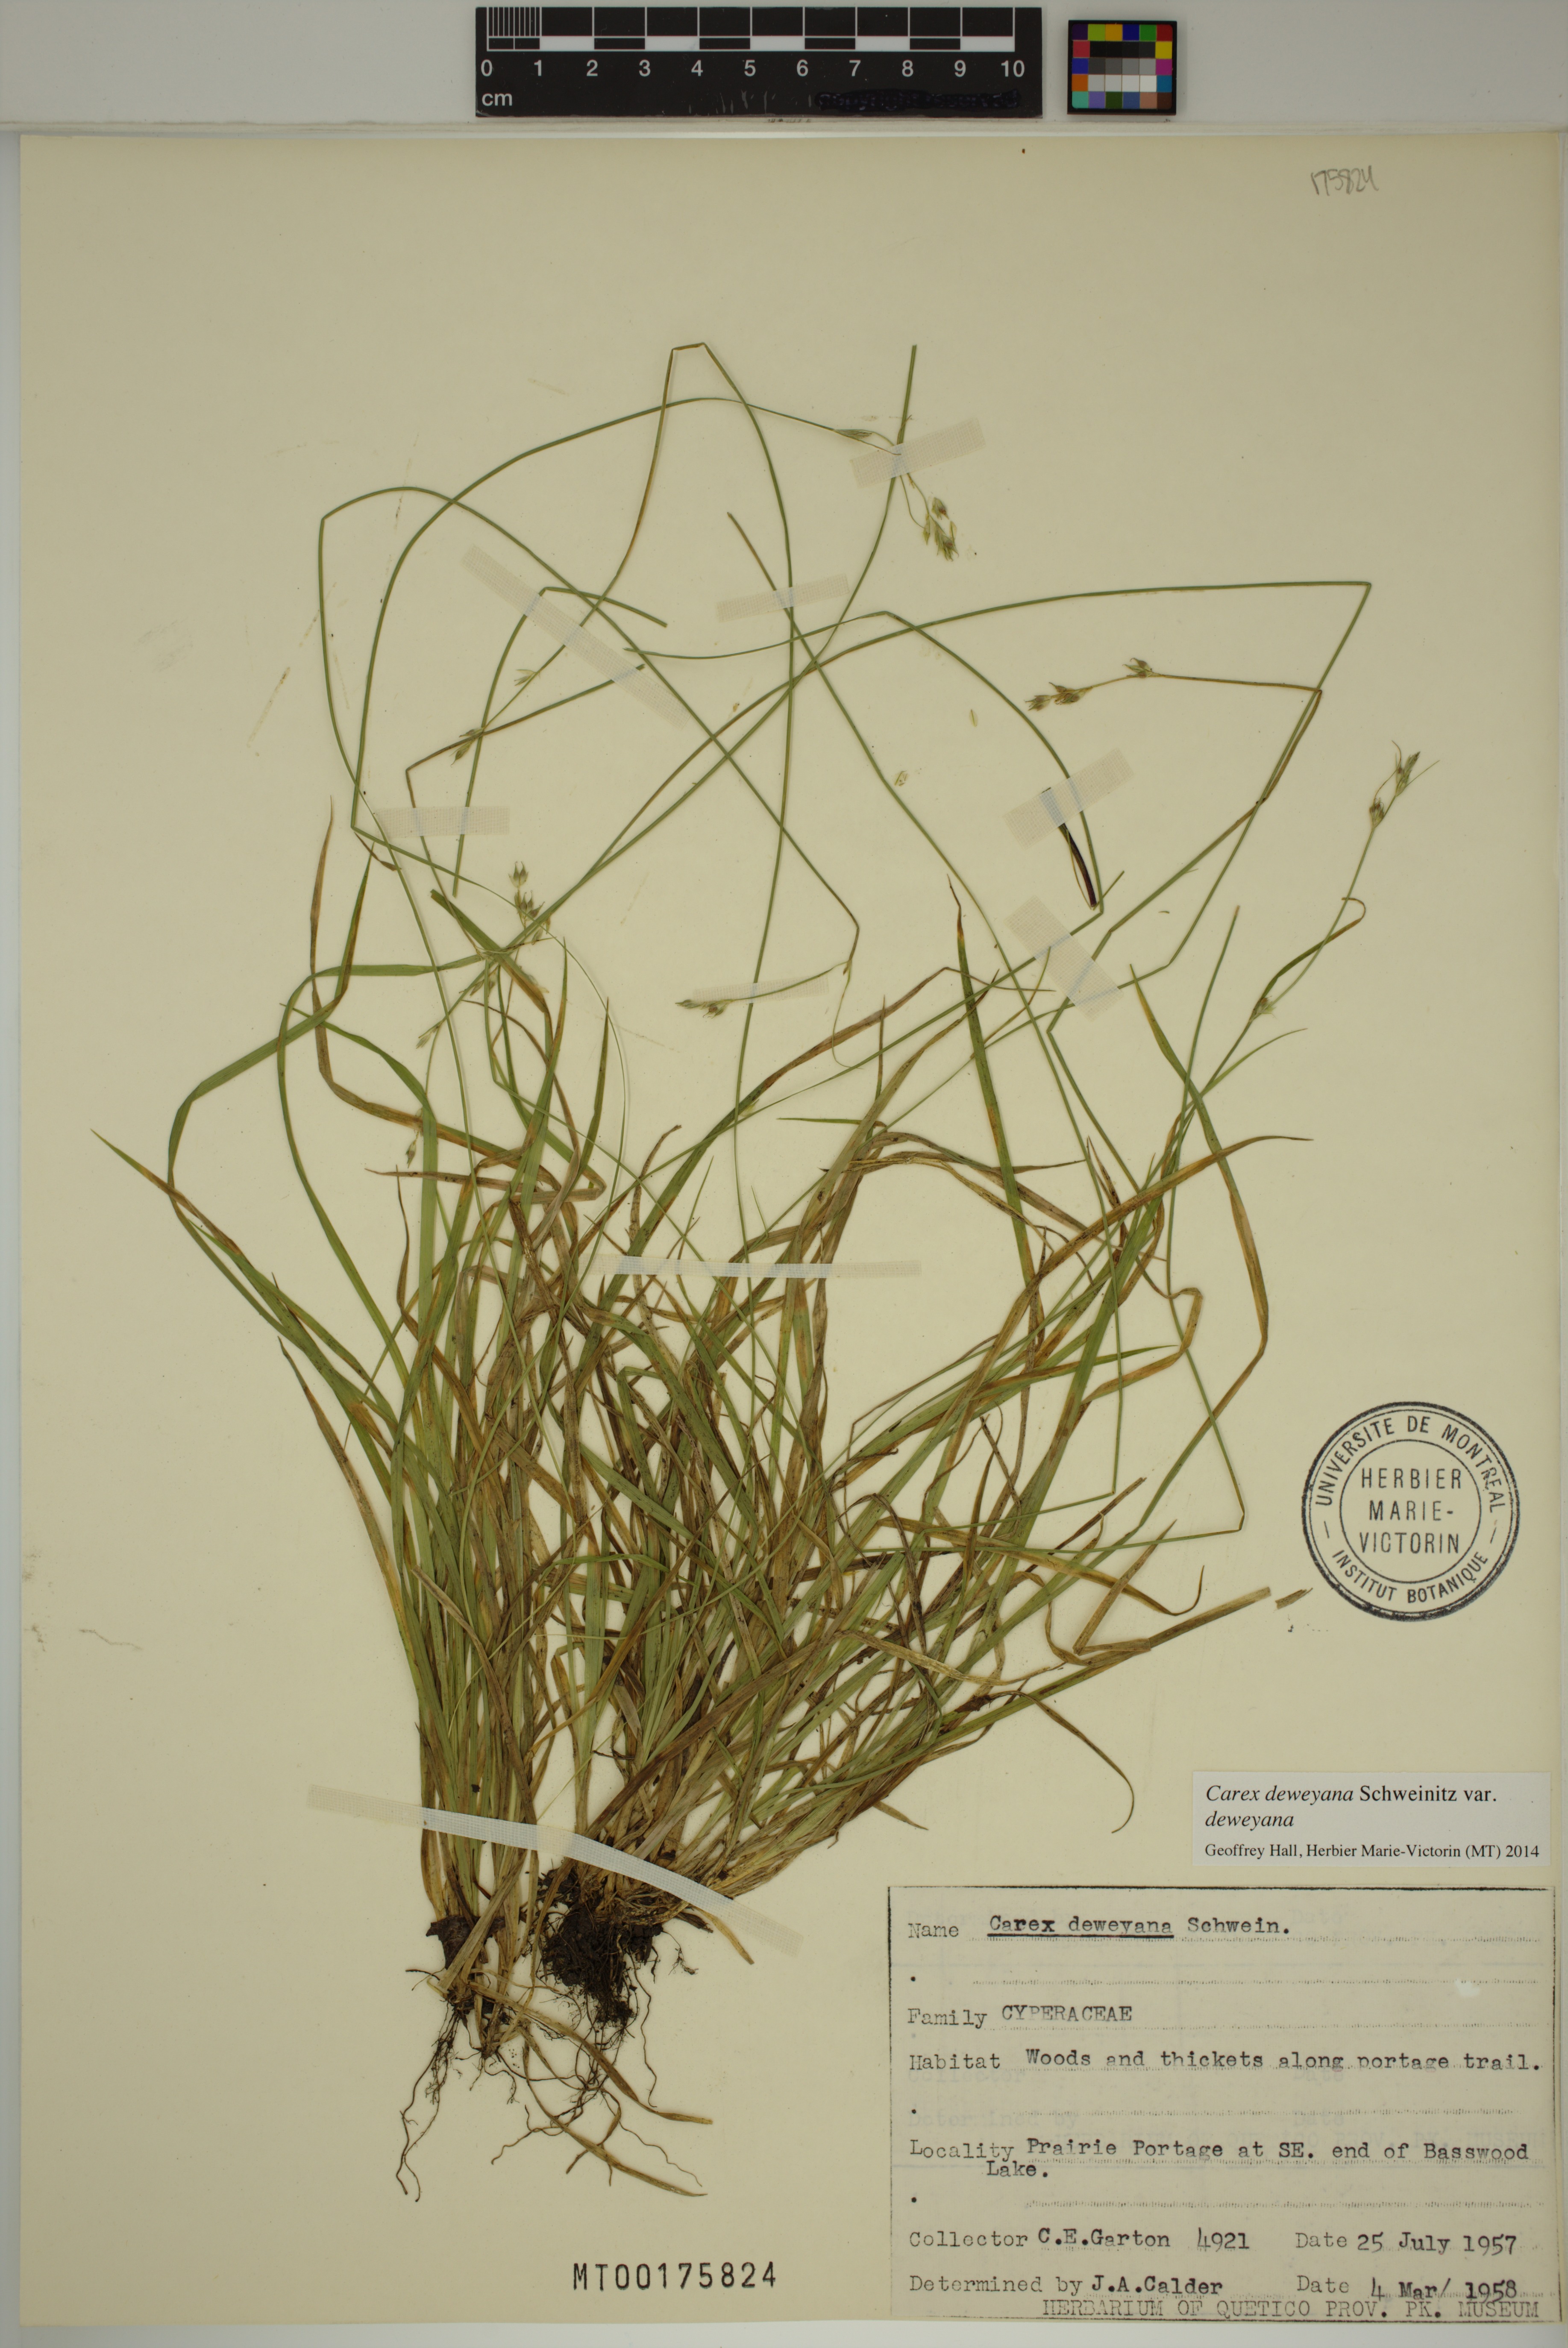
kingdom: Plantae
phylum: Tracheophyta
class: Liliopsida
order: Poales
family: Cyperaceae
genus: Carex
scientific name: Carex deweyana
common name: Dewey's sedge
